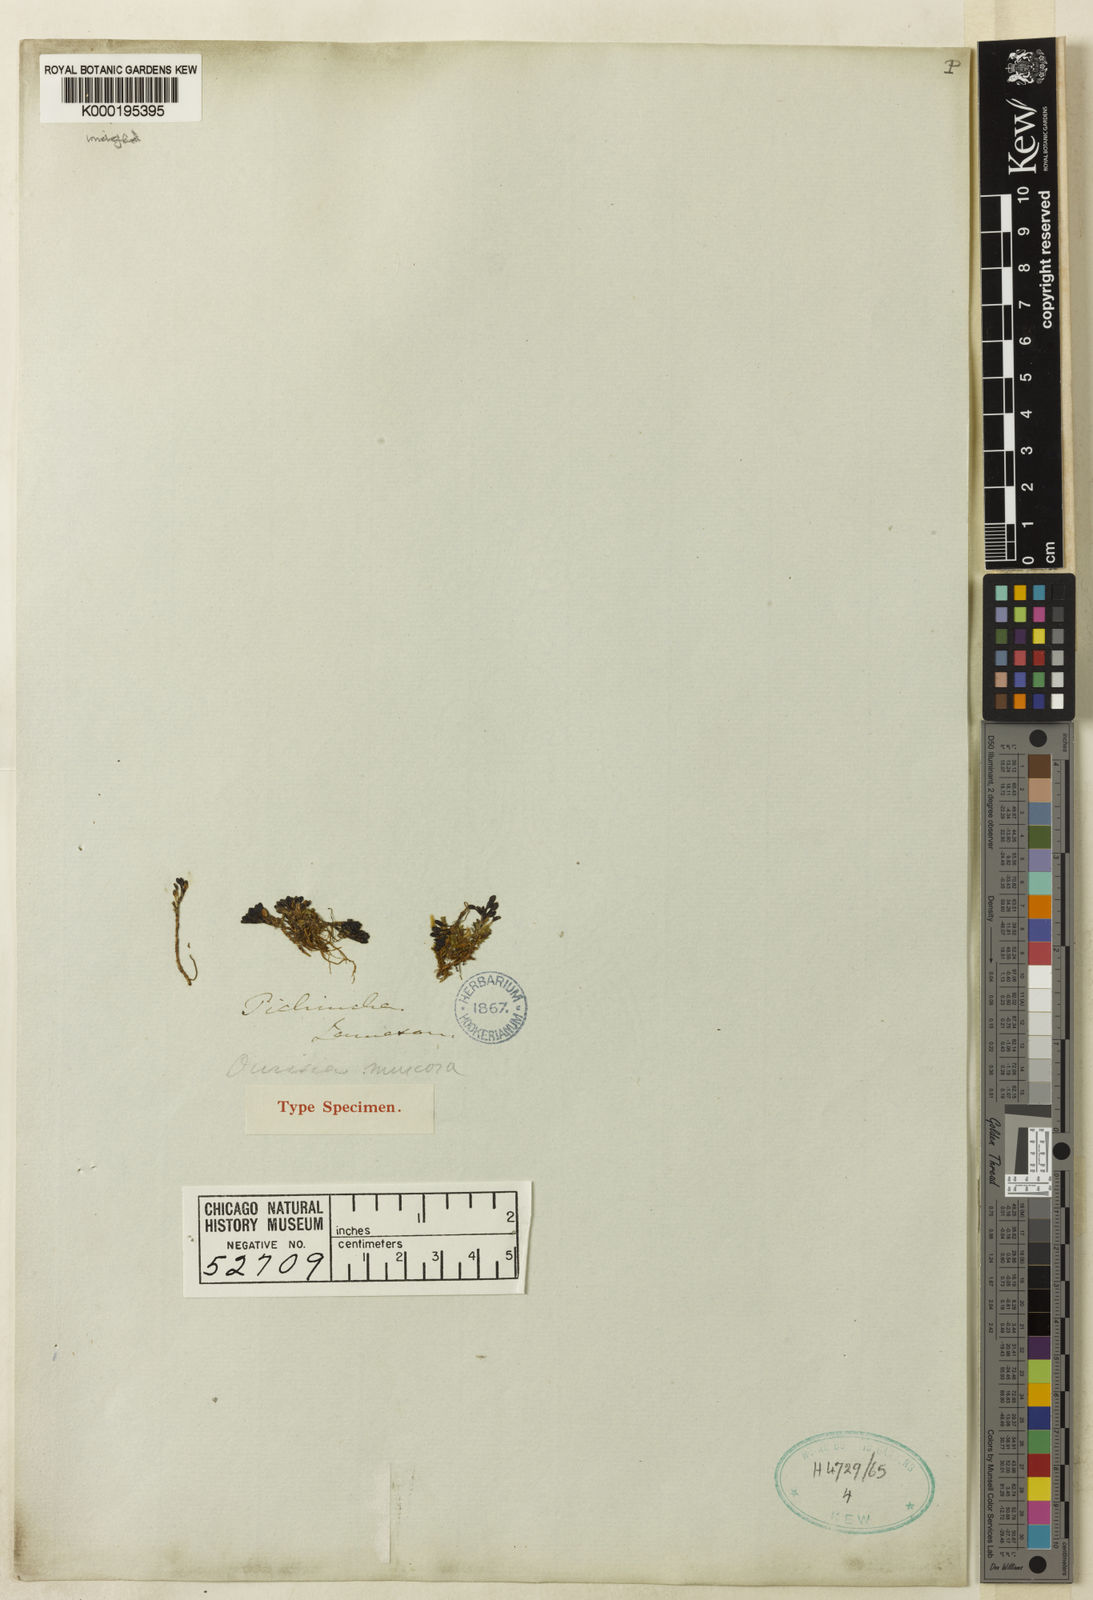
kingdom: Plantae
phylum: Tracheophyta
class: Magnoliopsida
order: Lamiales
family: Plantaginaceae
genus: Ourisia
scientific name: Ourisia muscosa
